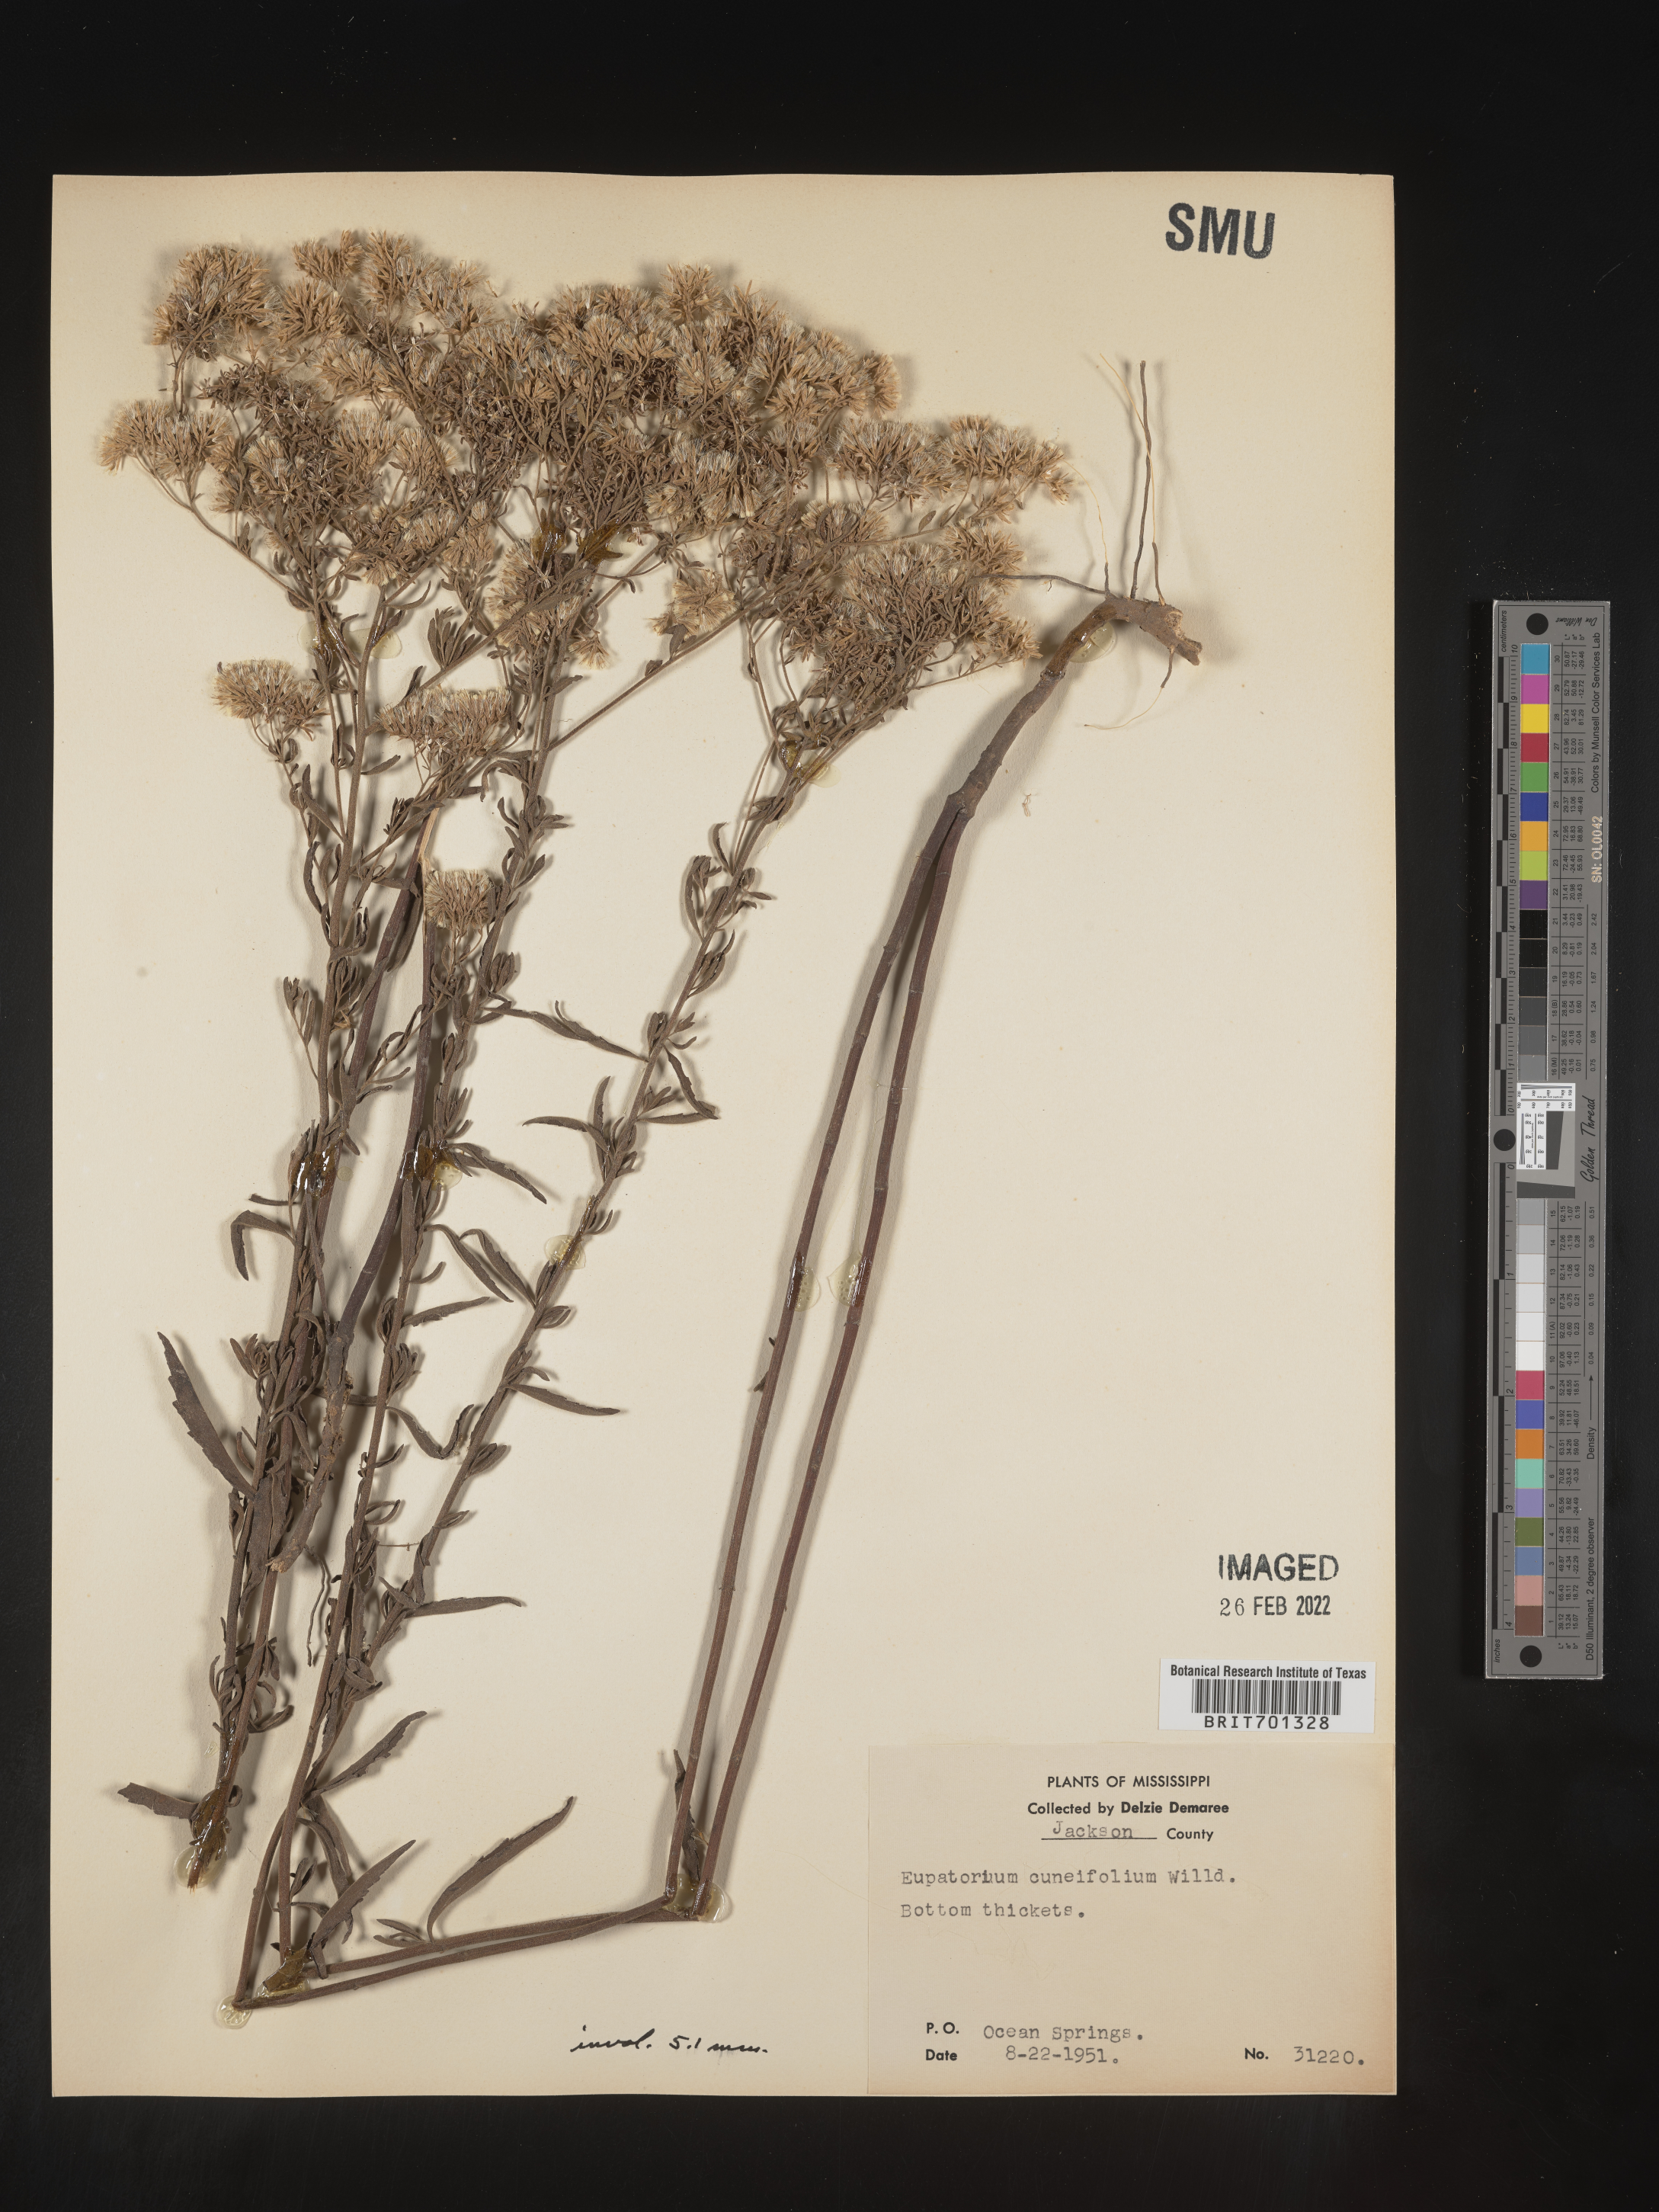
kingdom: Plantae
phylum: Tracheophyta
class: Magnoliopsida
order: Asterales
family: Asteraceae
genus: Eupatorium
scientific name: Eupatorium linearifolium
